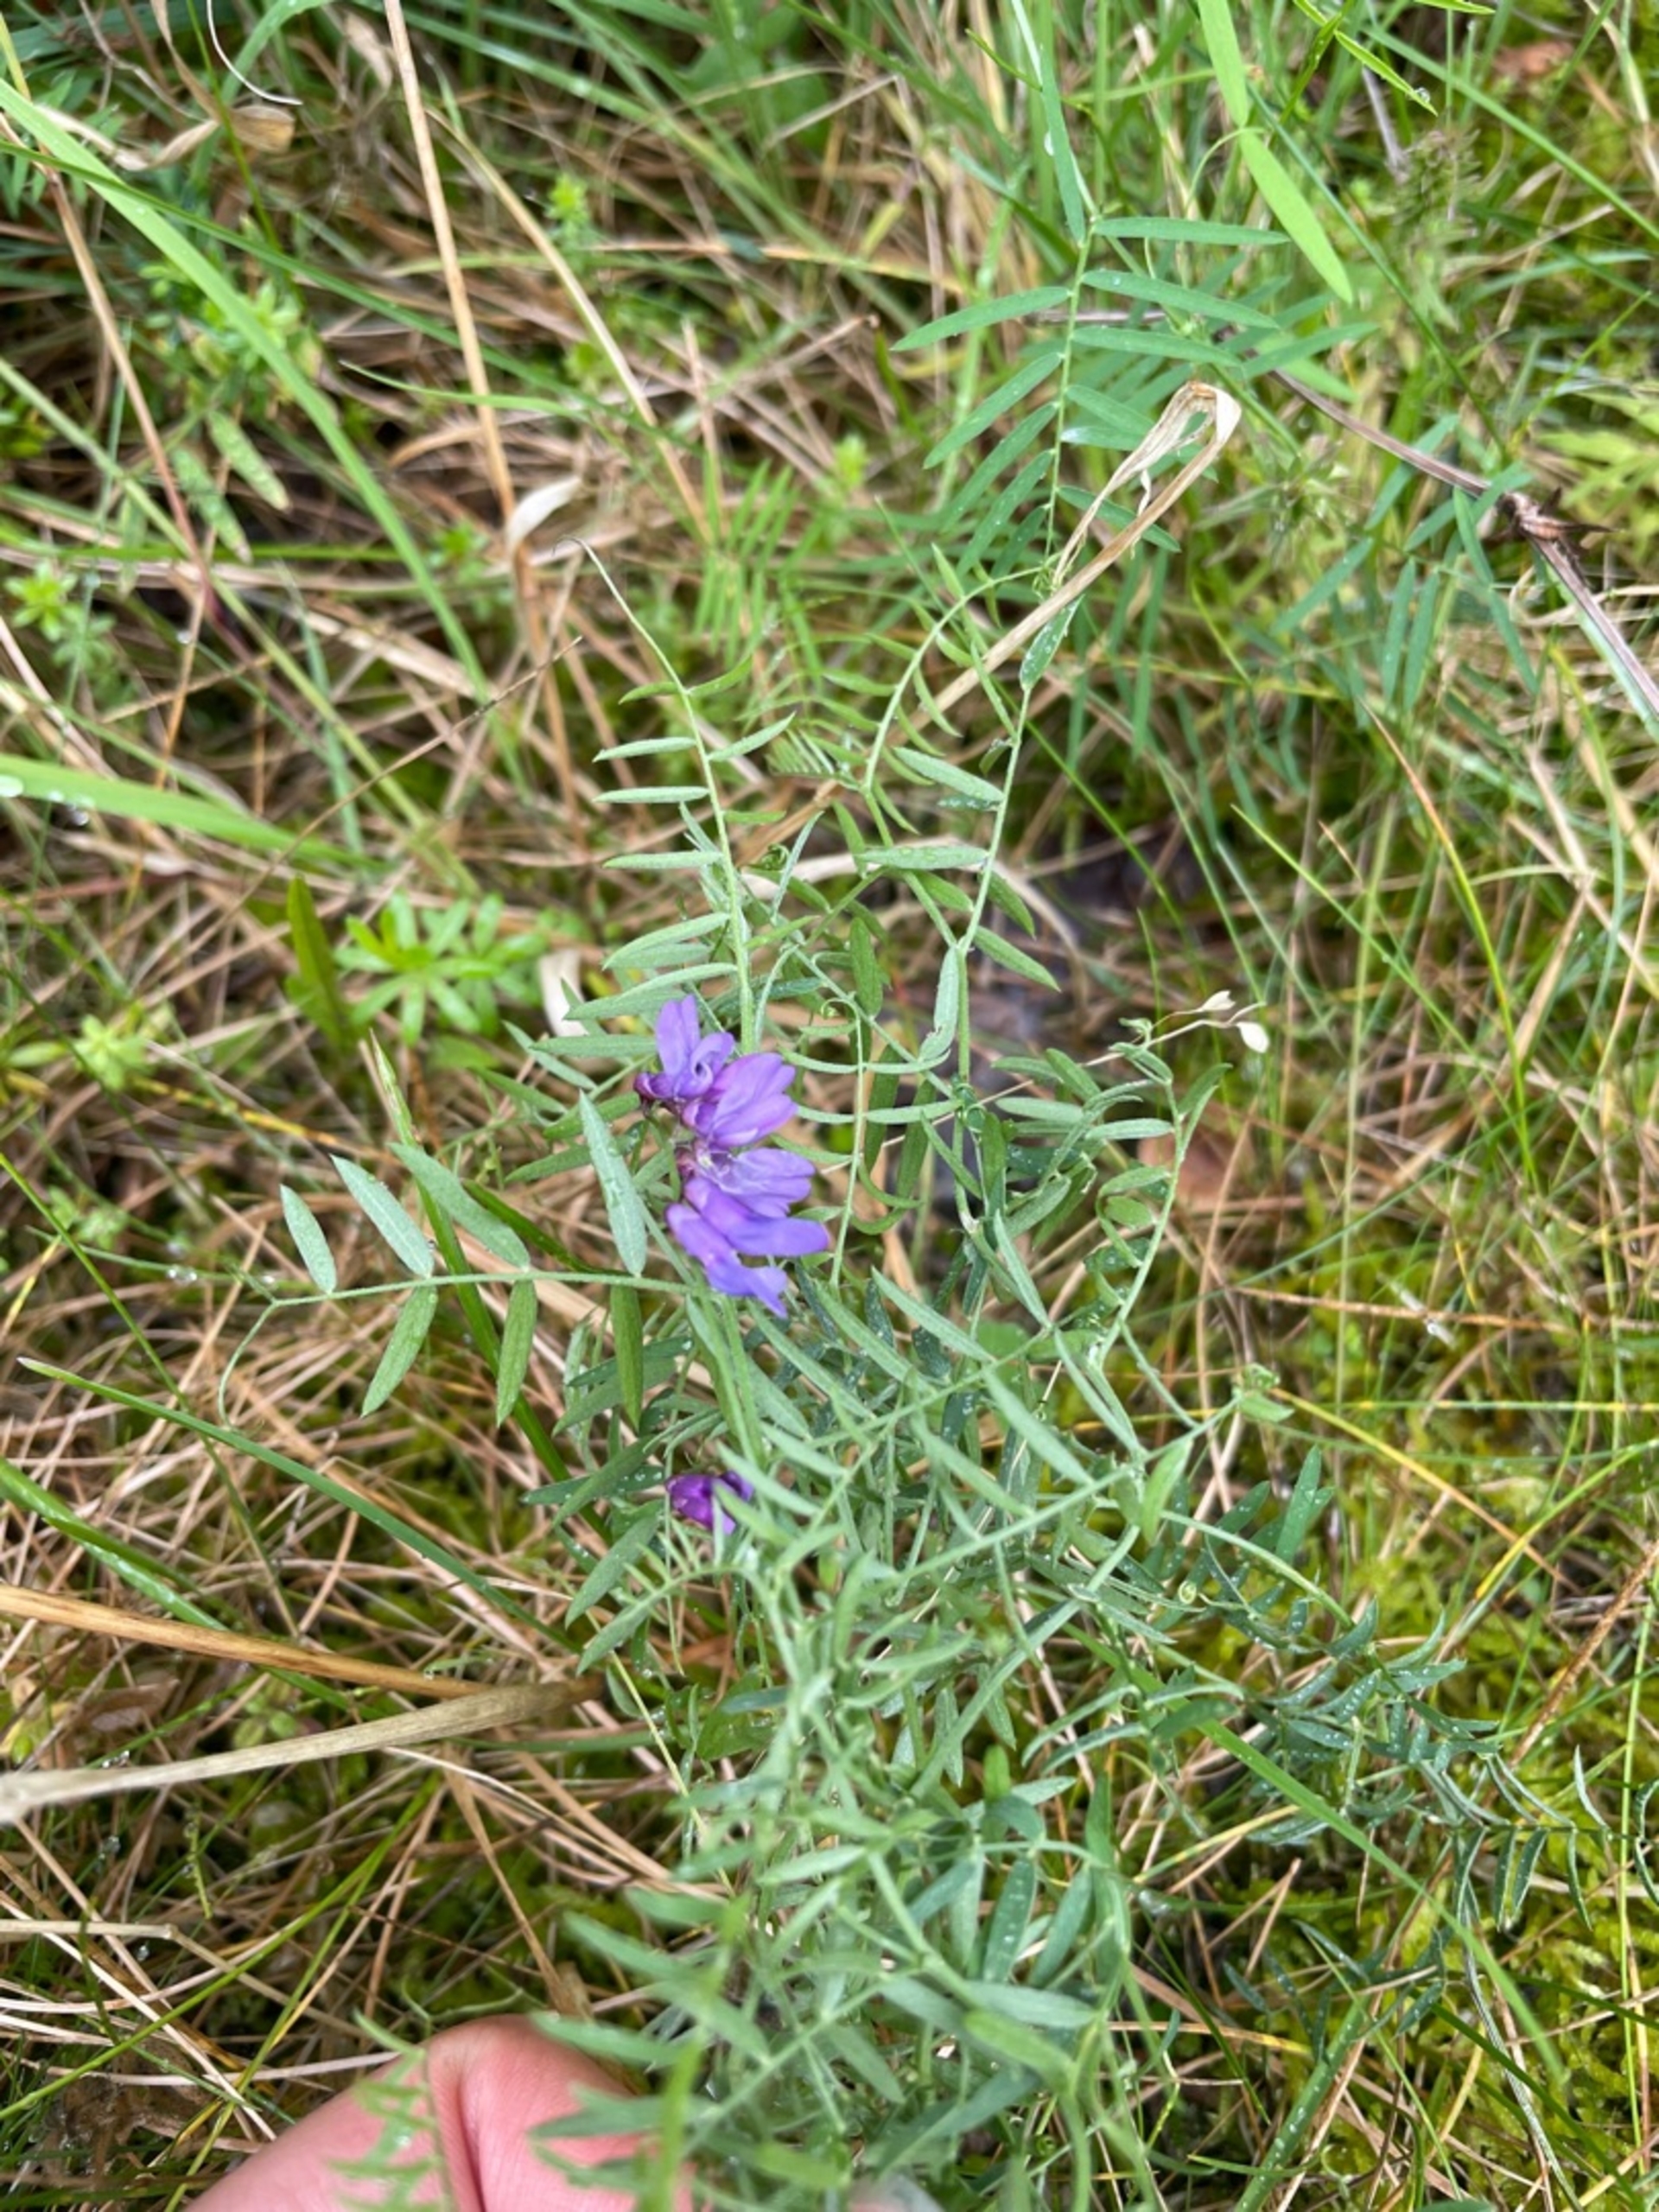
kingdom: Plantae
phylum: Tracheophyta
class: Magnoliopsida
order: Fabales
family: Fabaceae
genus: Vicia
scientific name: Vicia cracca
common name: Muse-vikke
